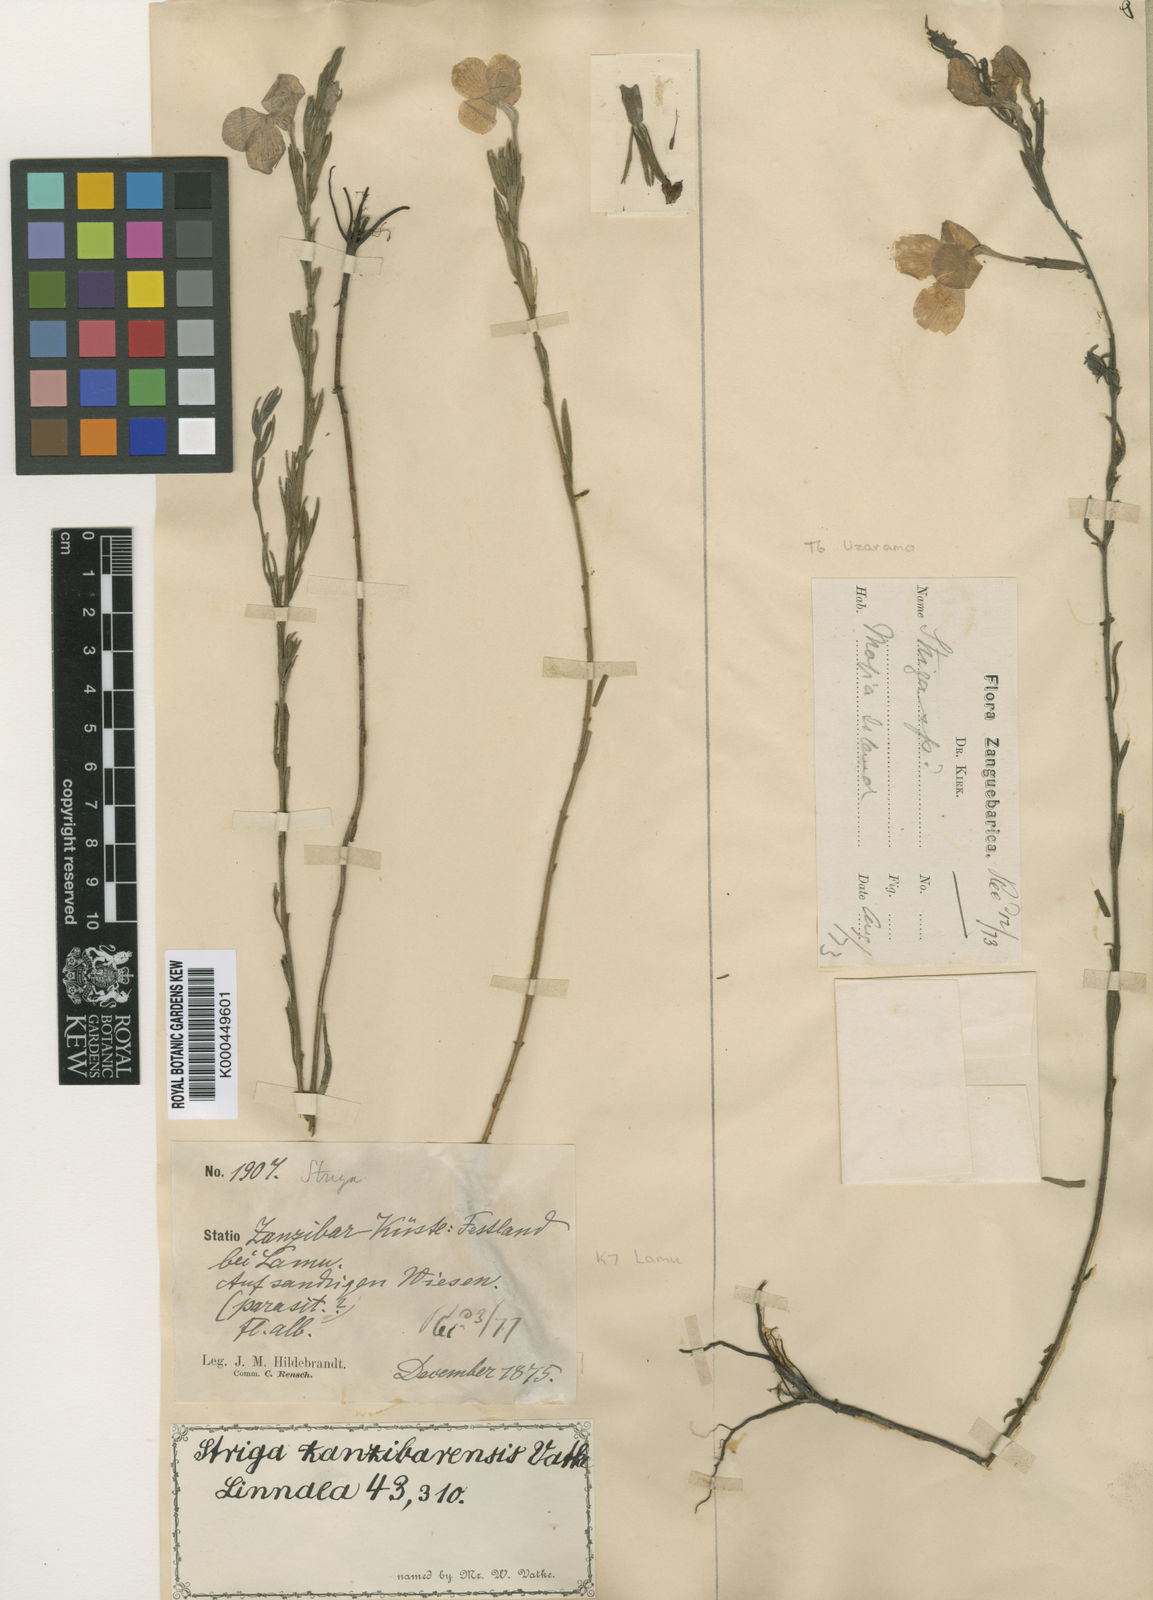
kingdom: Plantae
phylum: Tracheophyta
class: Magnoliopsida
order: Lamiales
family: Orobanchaceae
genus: Striga
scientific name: Striga pubiflora
